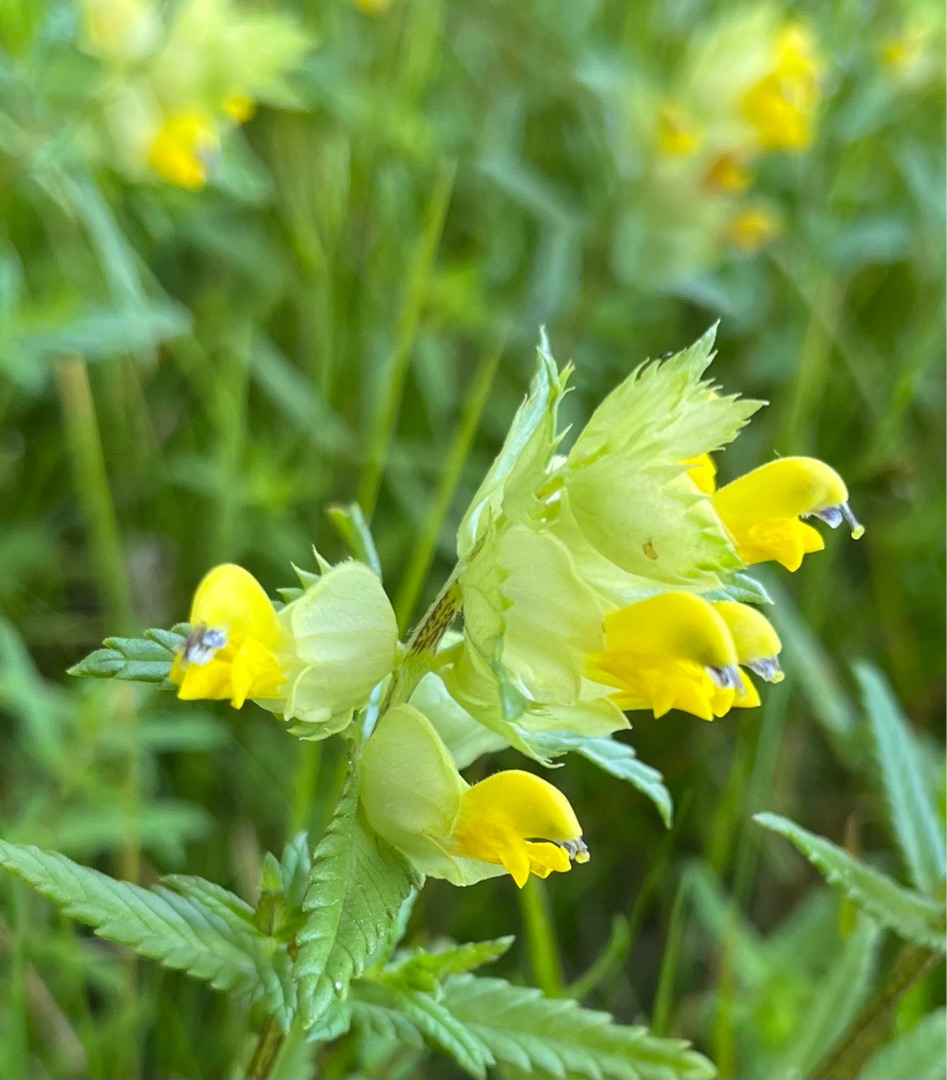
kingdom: Plantae
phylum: Tracheophyta
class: Magnoliopsida
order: Lamiales
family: Orobanchaceae
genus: Rhinanthus
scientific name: Rhinanthus
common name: Stor skjaller
